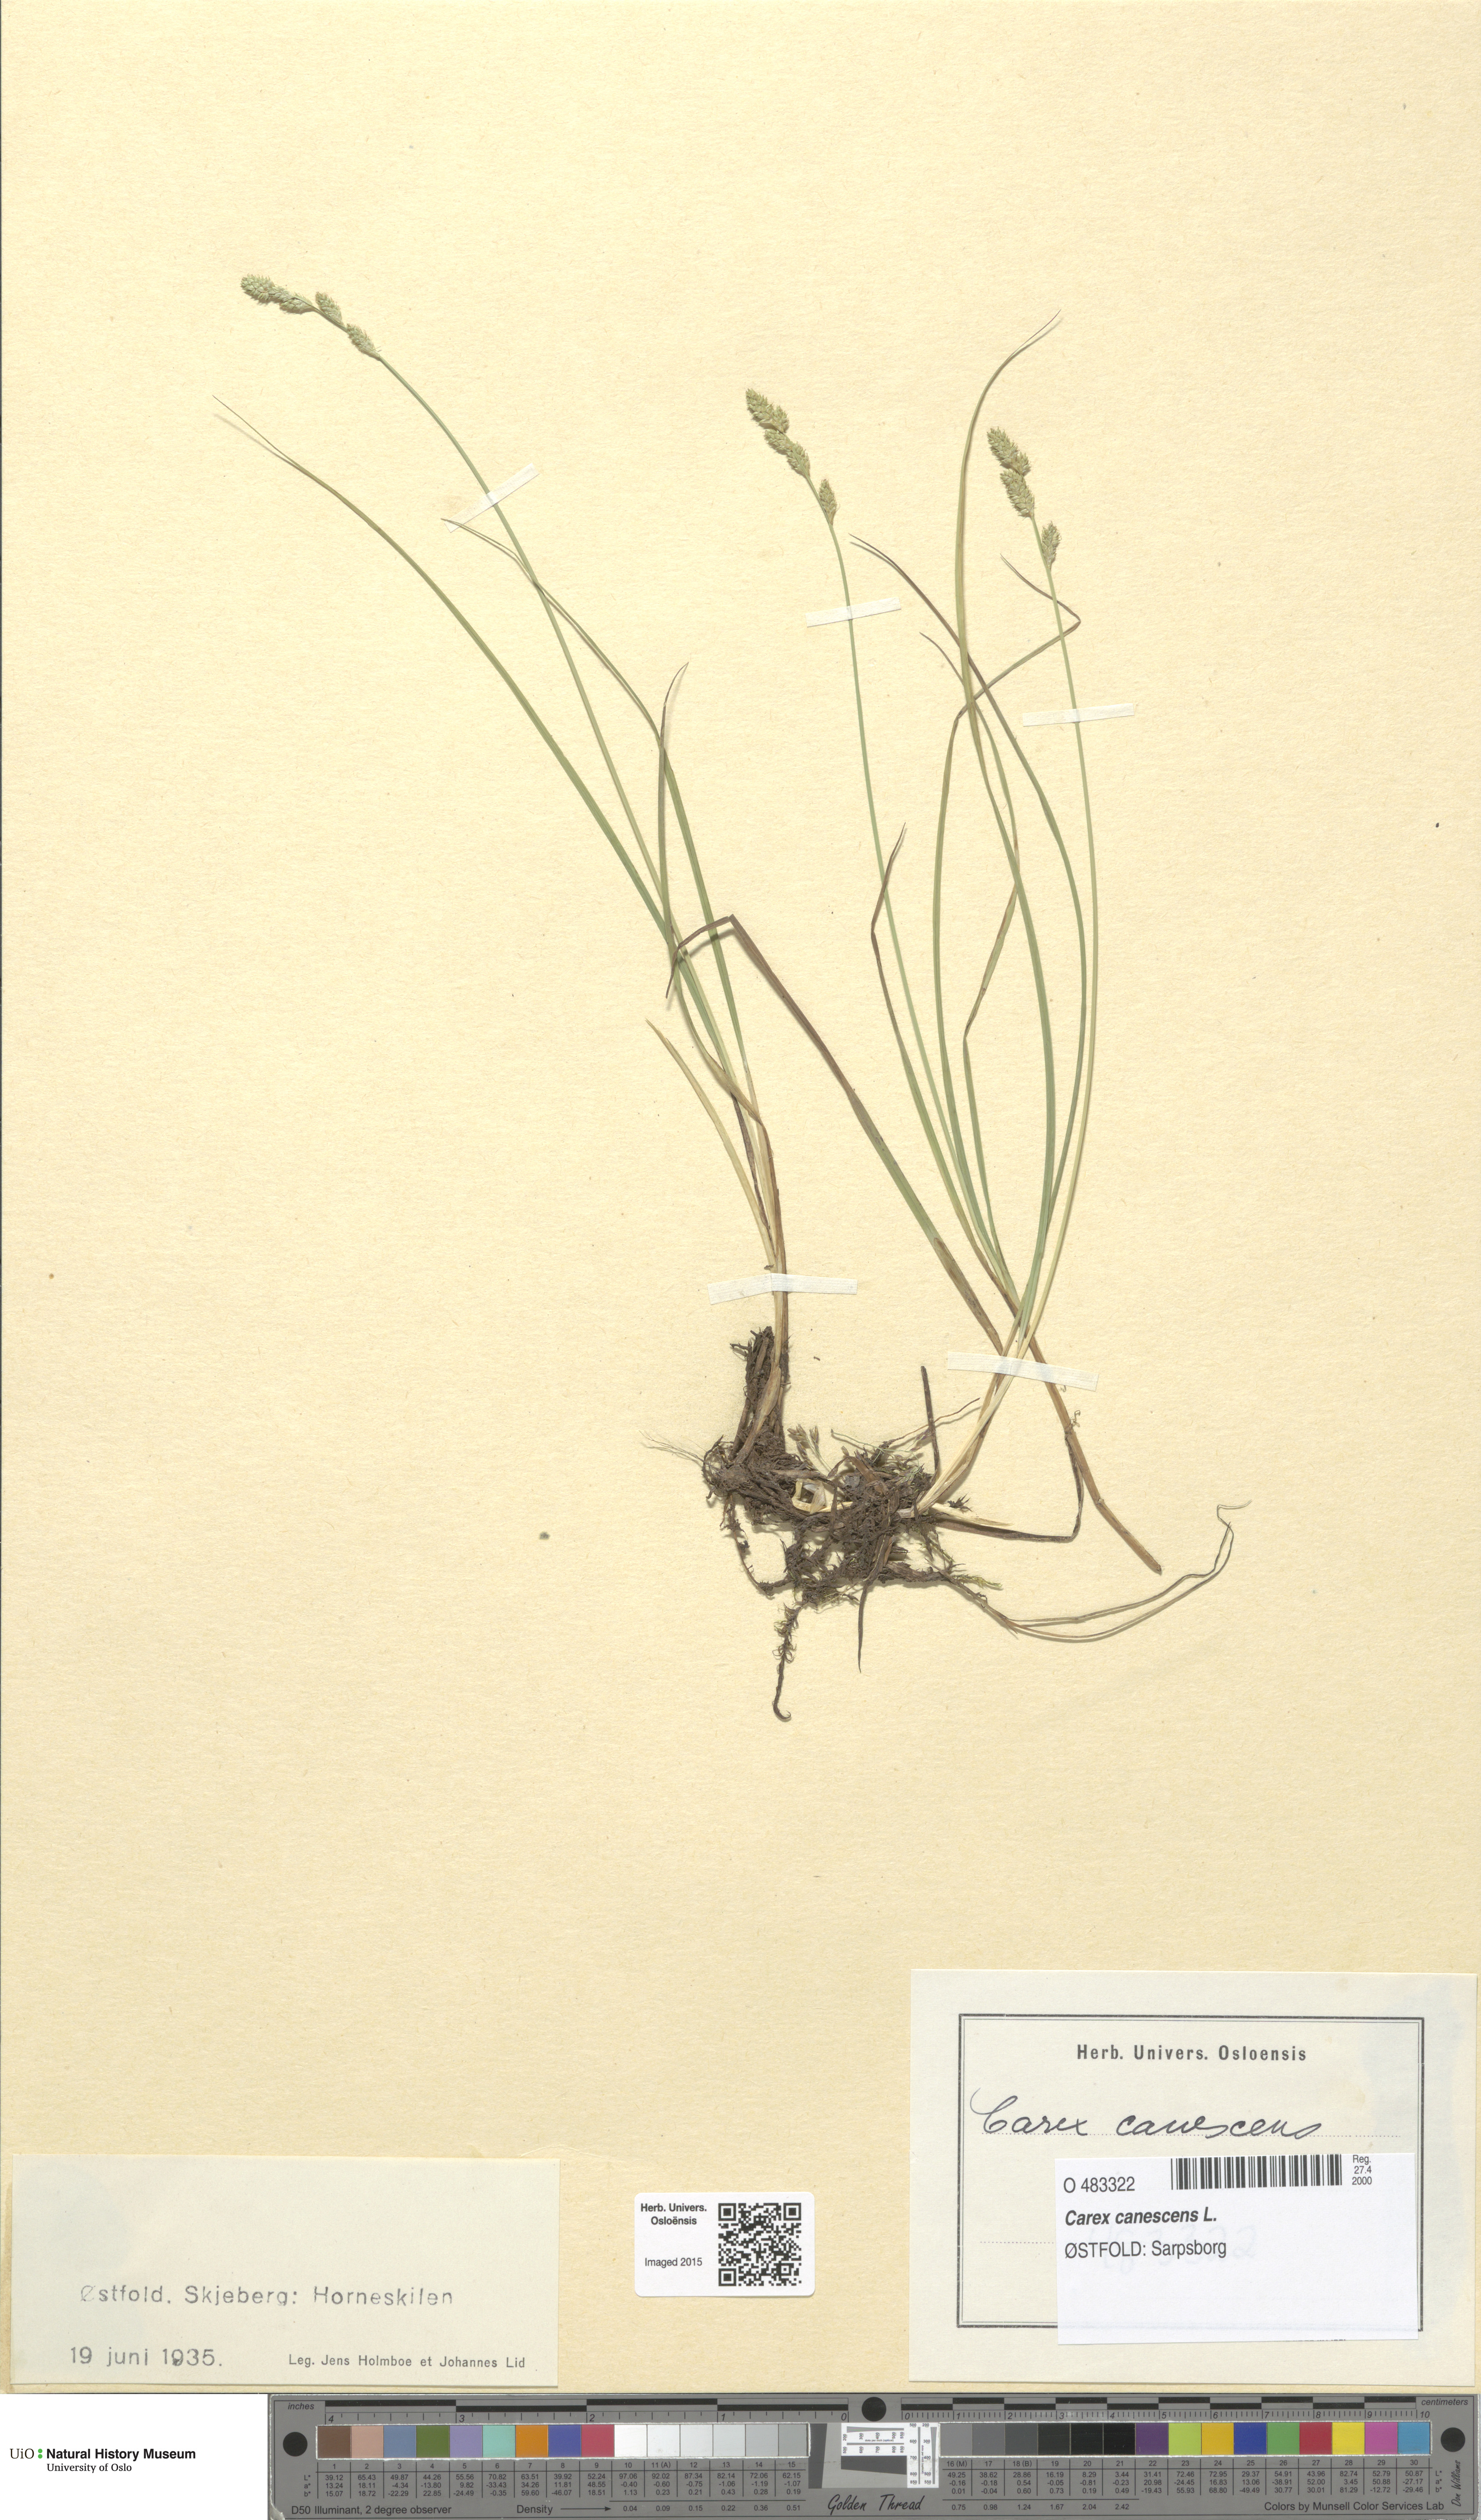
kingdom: Plantae
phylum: Tracheophyta
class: Liliopsida
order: Poales
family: Cyperaceae
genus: Carex
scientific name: Carex canescens
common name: White sedge
